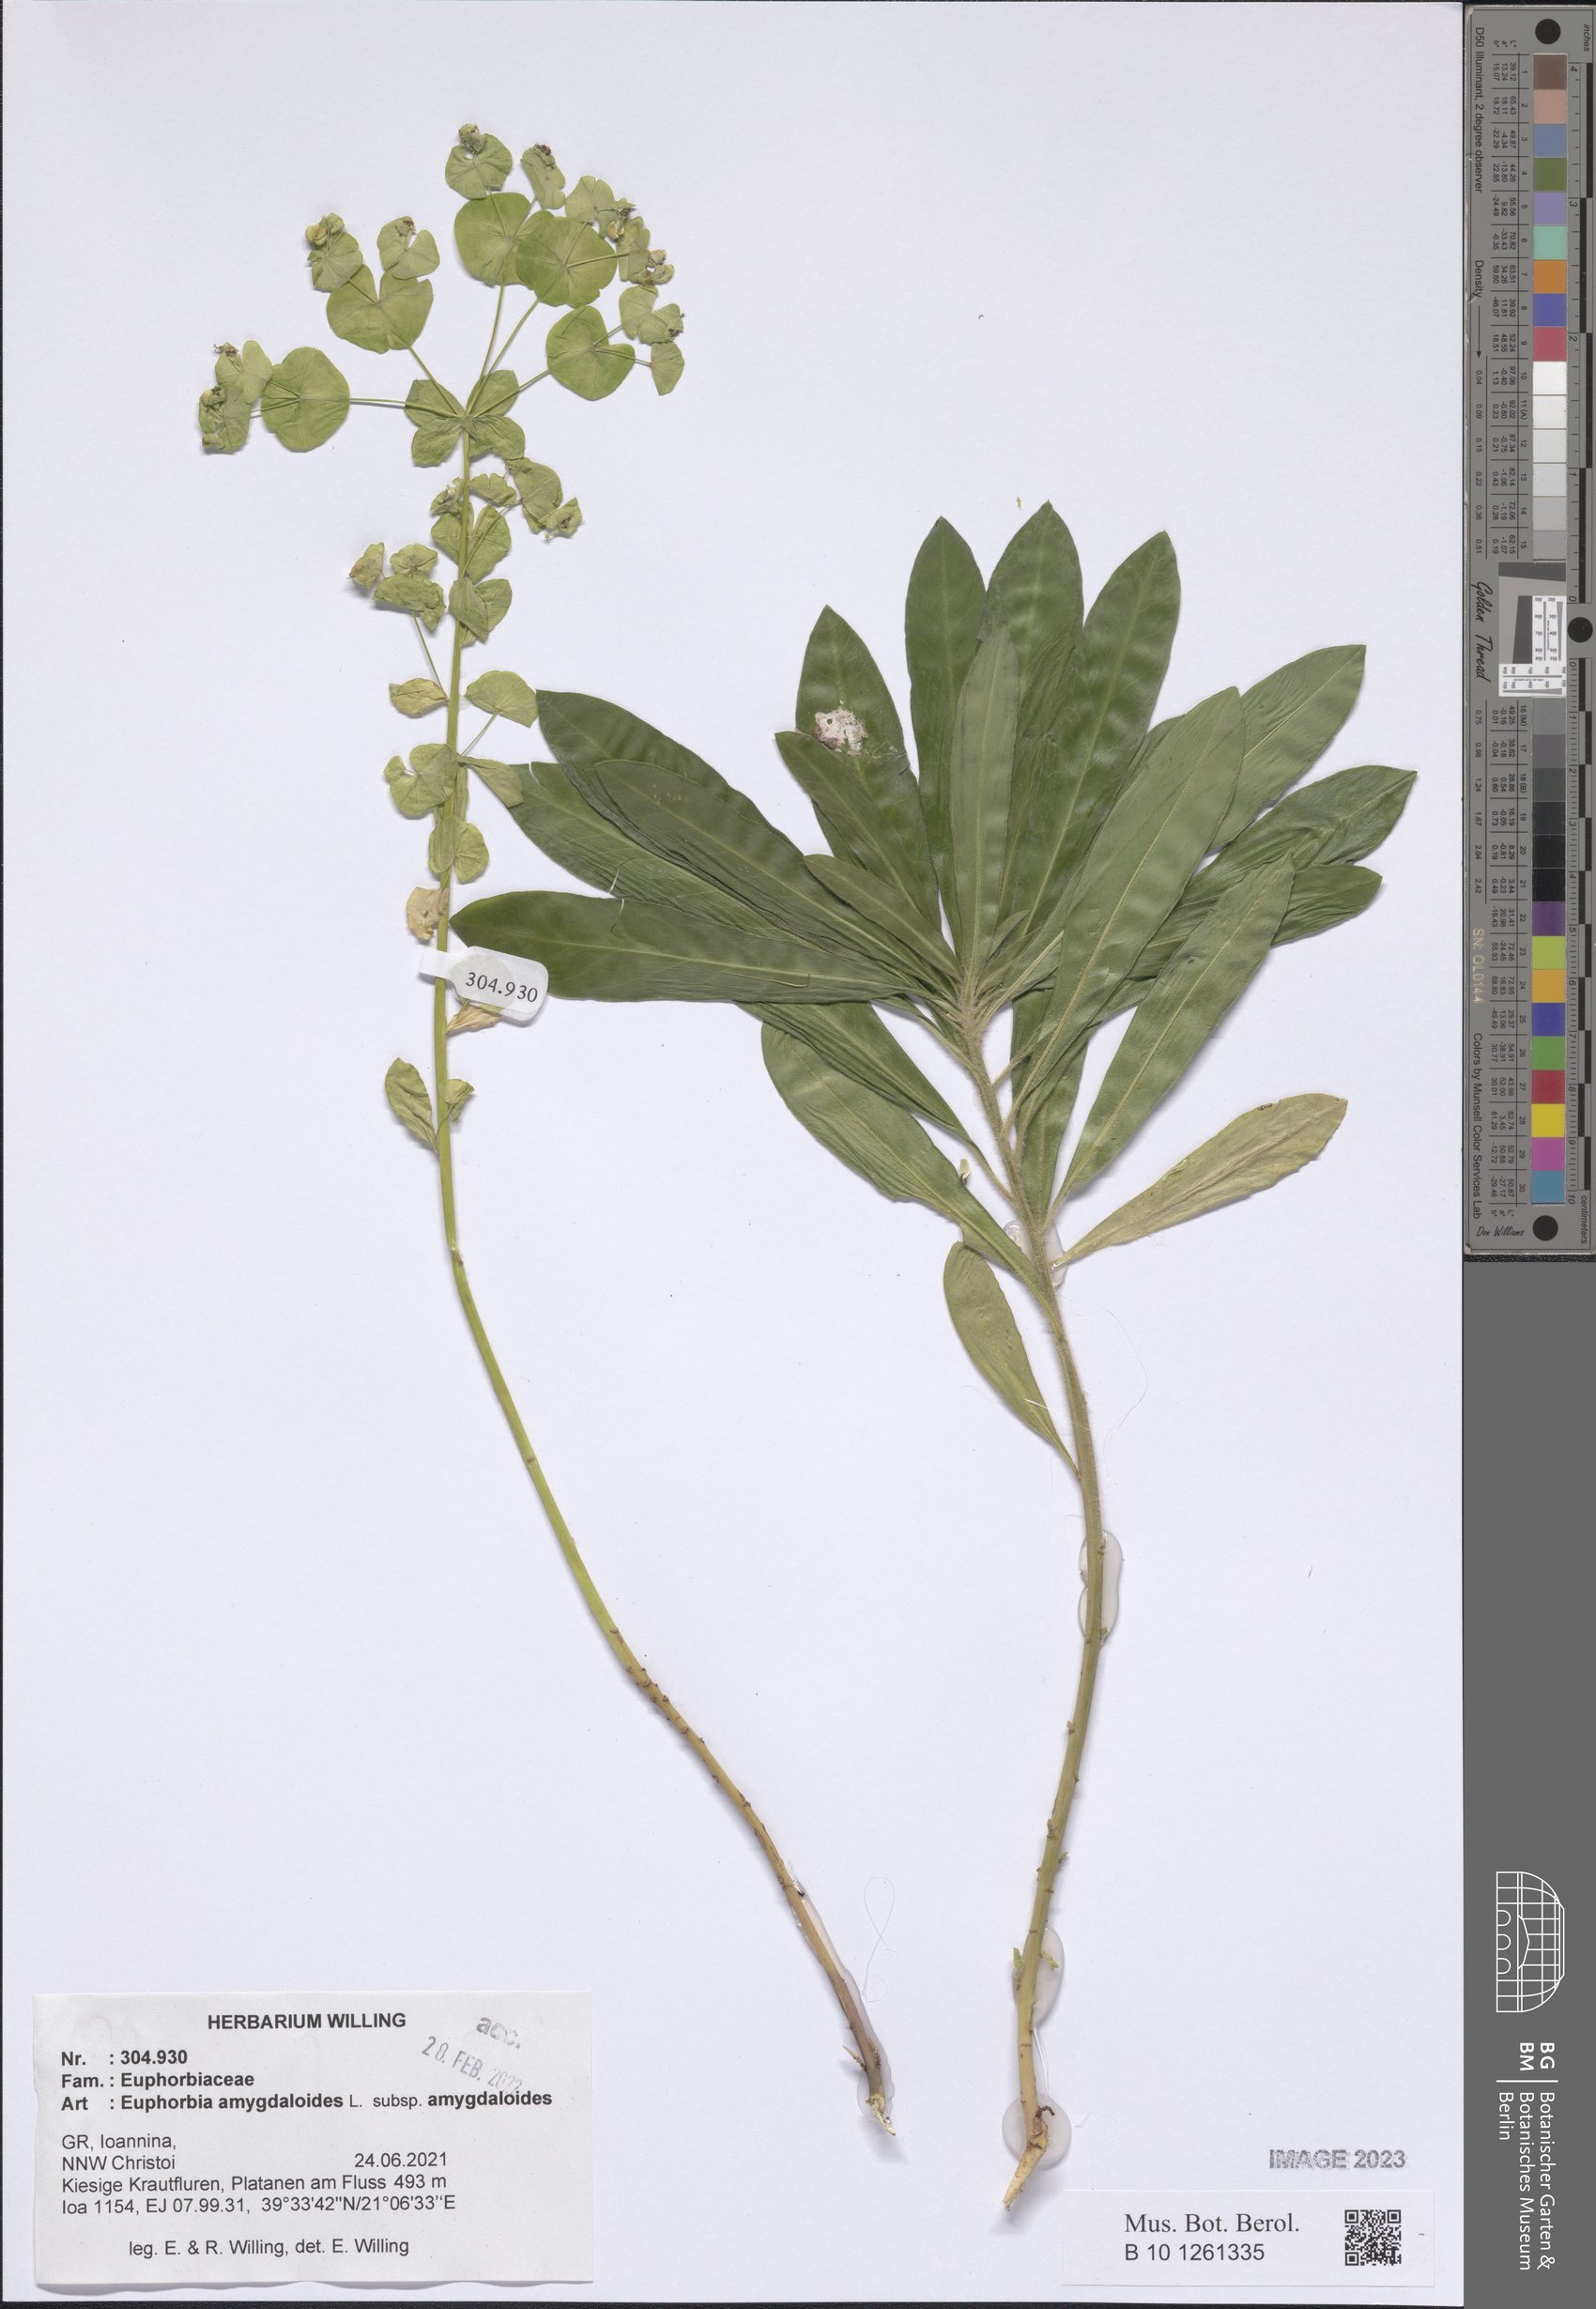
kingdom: Plantae
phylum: Tracheophyta
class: Magnoliopsida
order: Malpighiales
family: Euphorbiaceae
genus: Euphorbia
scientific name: Euphorbia amygdaloides
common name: Wood spurge
